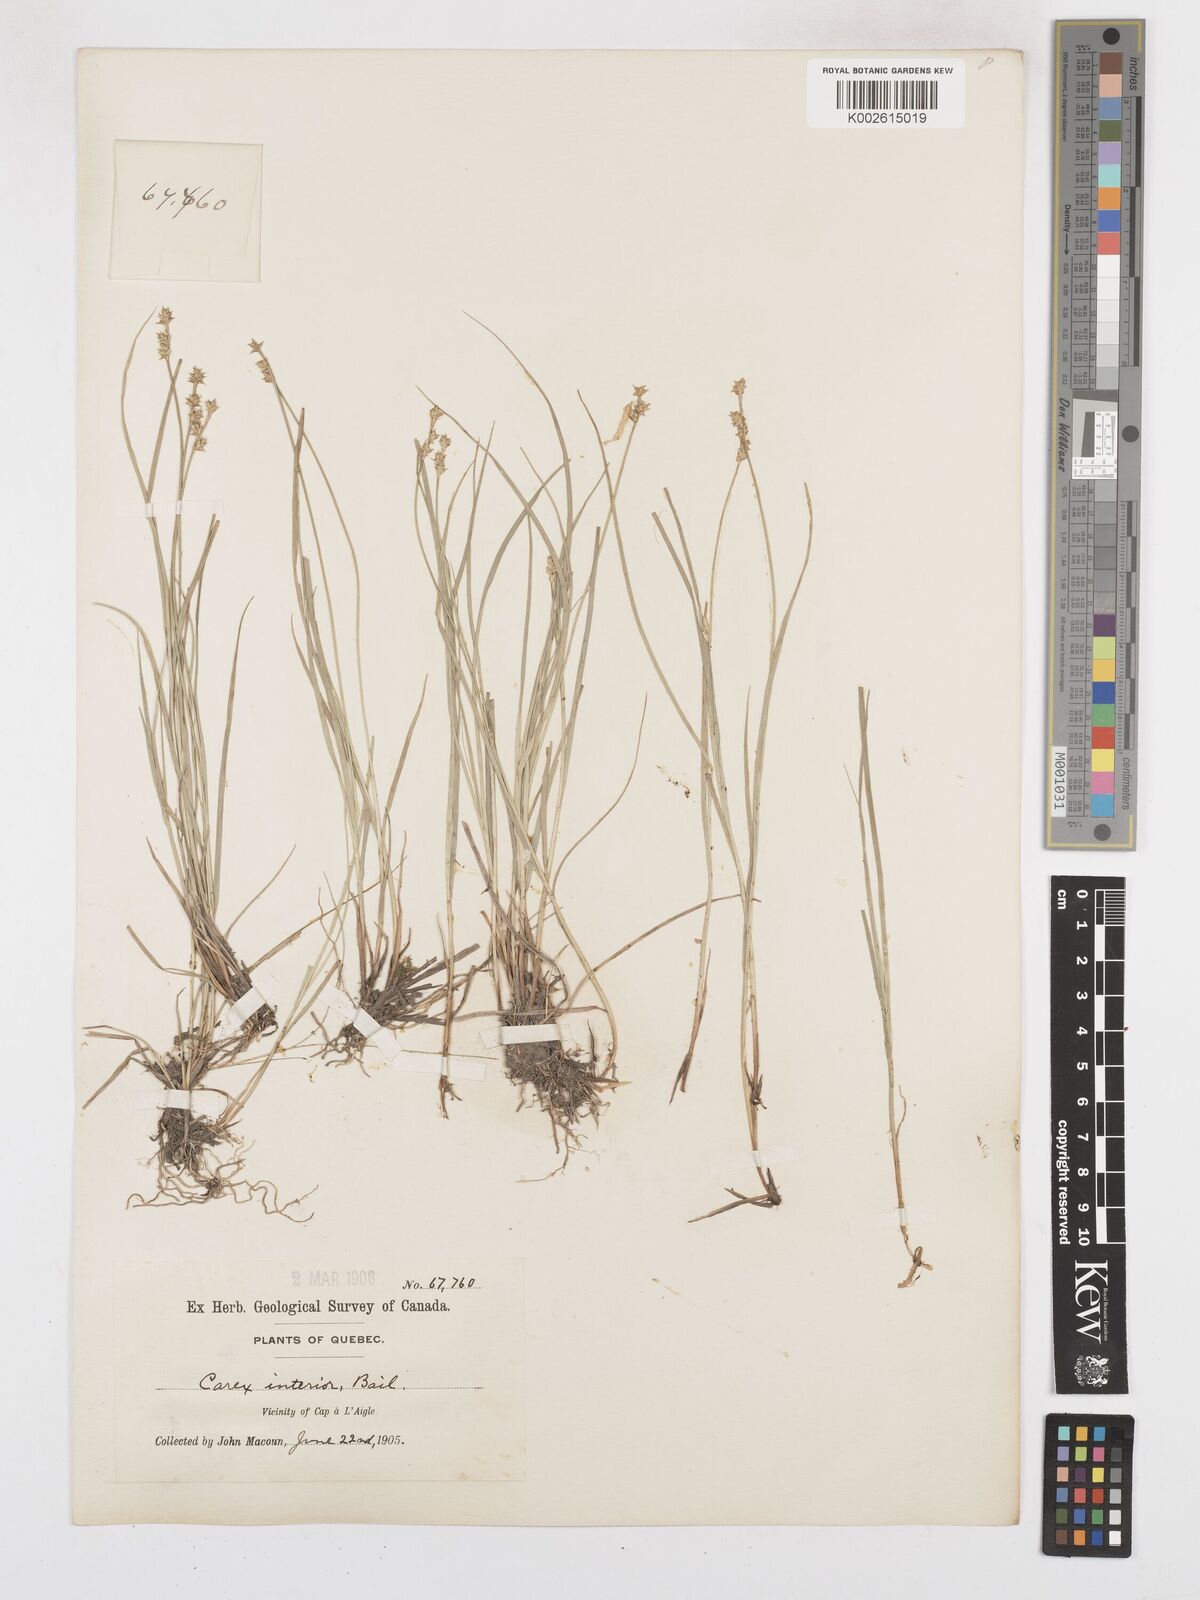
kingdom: Plantae
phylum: Tracheophyta
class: Liliopsida
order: Poales
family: Cyperaceae
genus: Carex
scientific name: Carex interior
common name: Inland sedge
